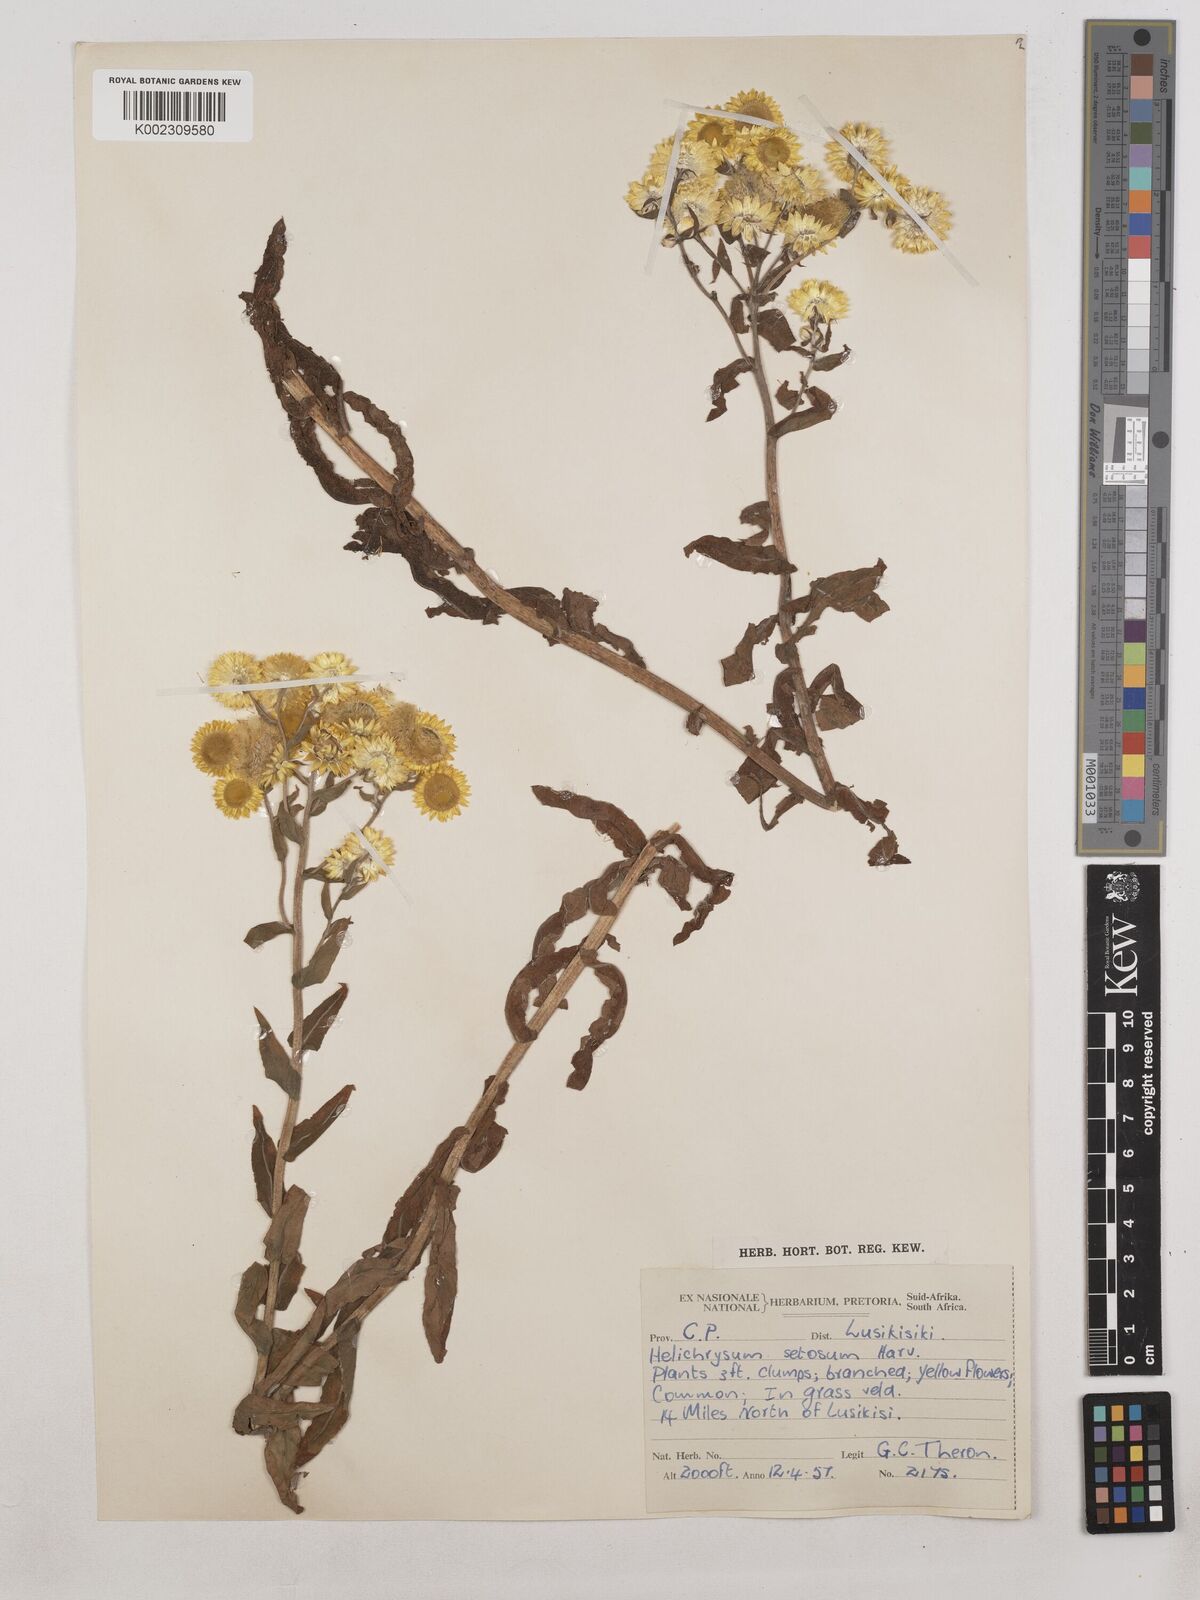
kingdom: Plantae
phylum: Tracheophyta
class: Magnoliopsida
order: Asterales
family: Asteraceae
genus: Helichrysum
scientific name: Helichrysum cooperi
